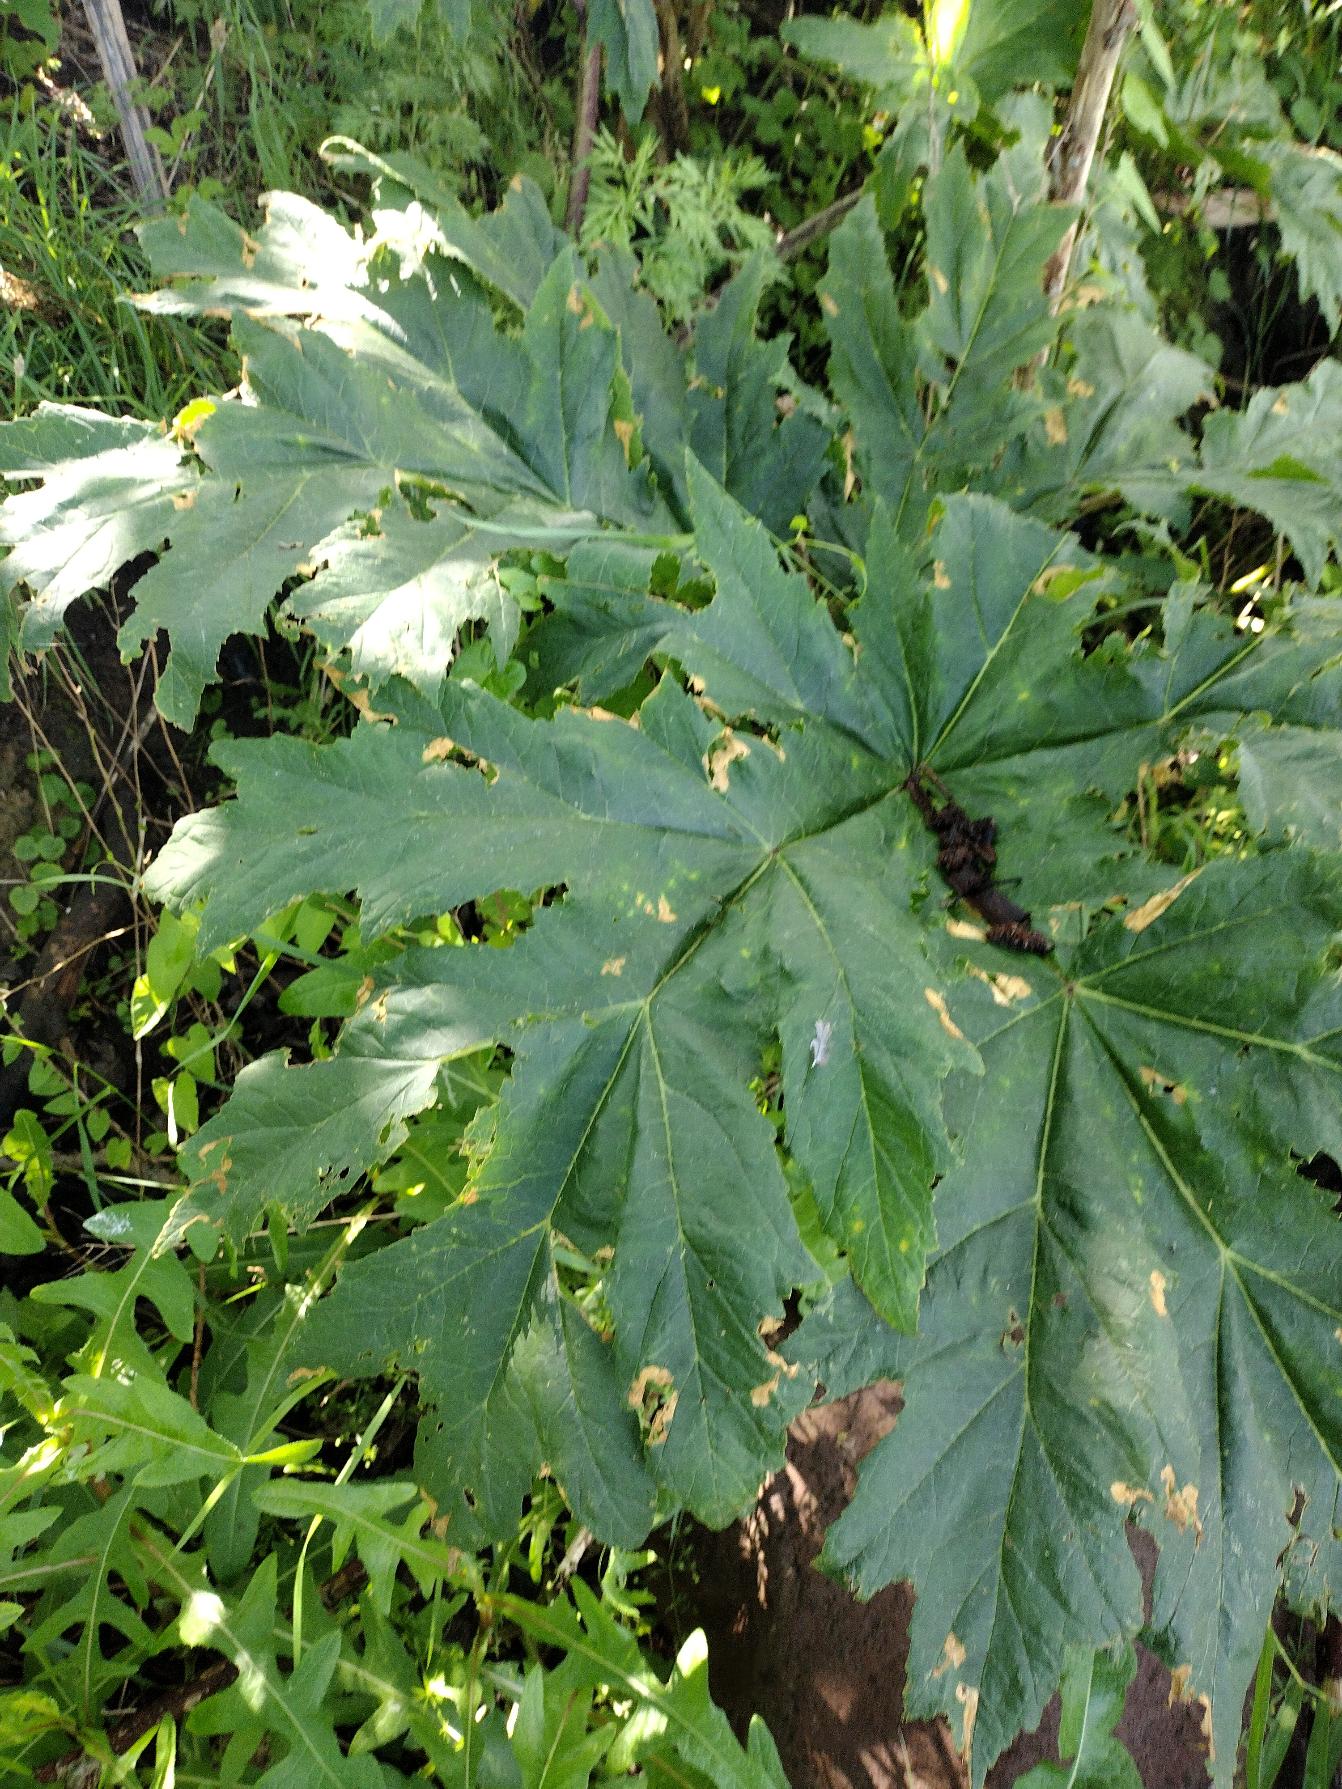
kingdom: Plantae
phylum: Tracheophyta
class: Magnoliopsida
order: Apiales
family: Apiaceae
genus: Heracleum
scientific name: Heracleum mantegazzianum
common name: Kæmpe-bjørneklo
